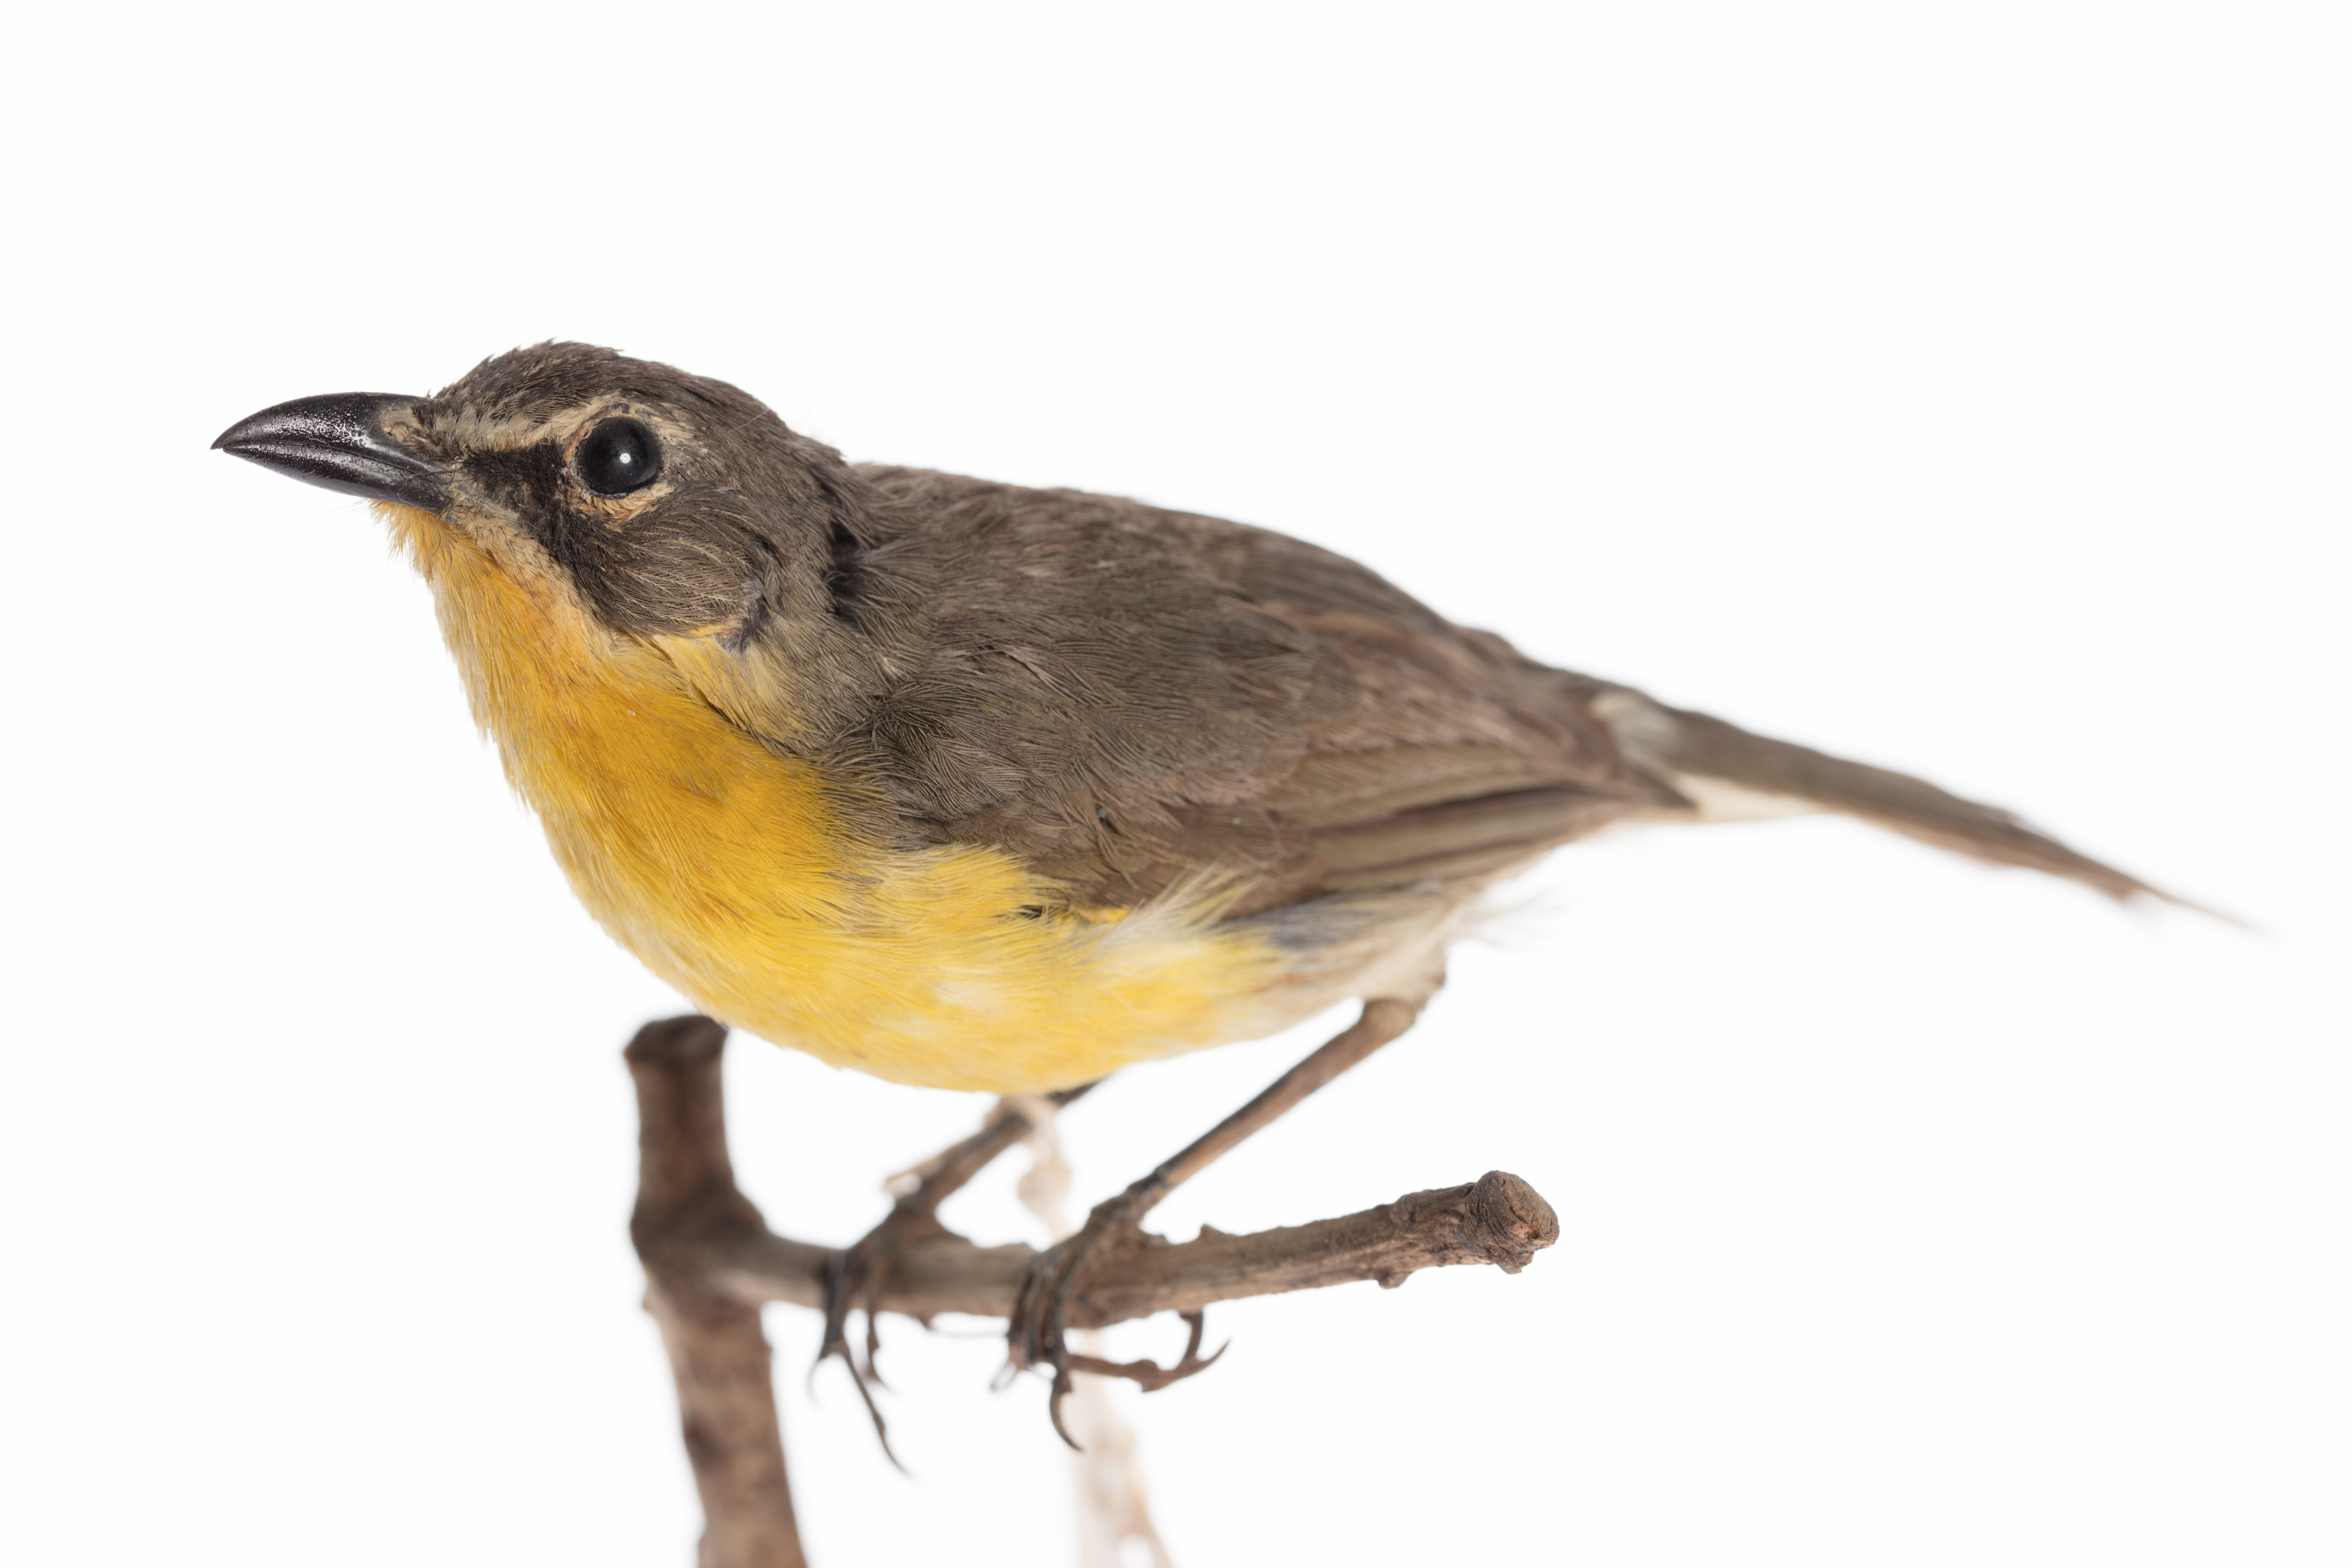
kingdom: Animalia
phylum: Chordata
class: Aves
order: Passeriformes
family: Parulidae
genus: Icteria
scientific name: Icteria virens
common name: Yellow-breasted chat
